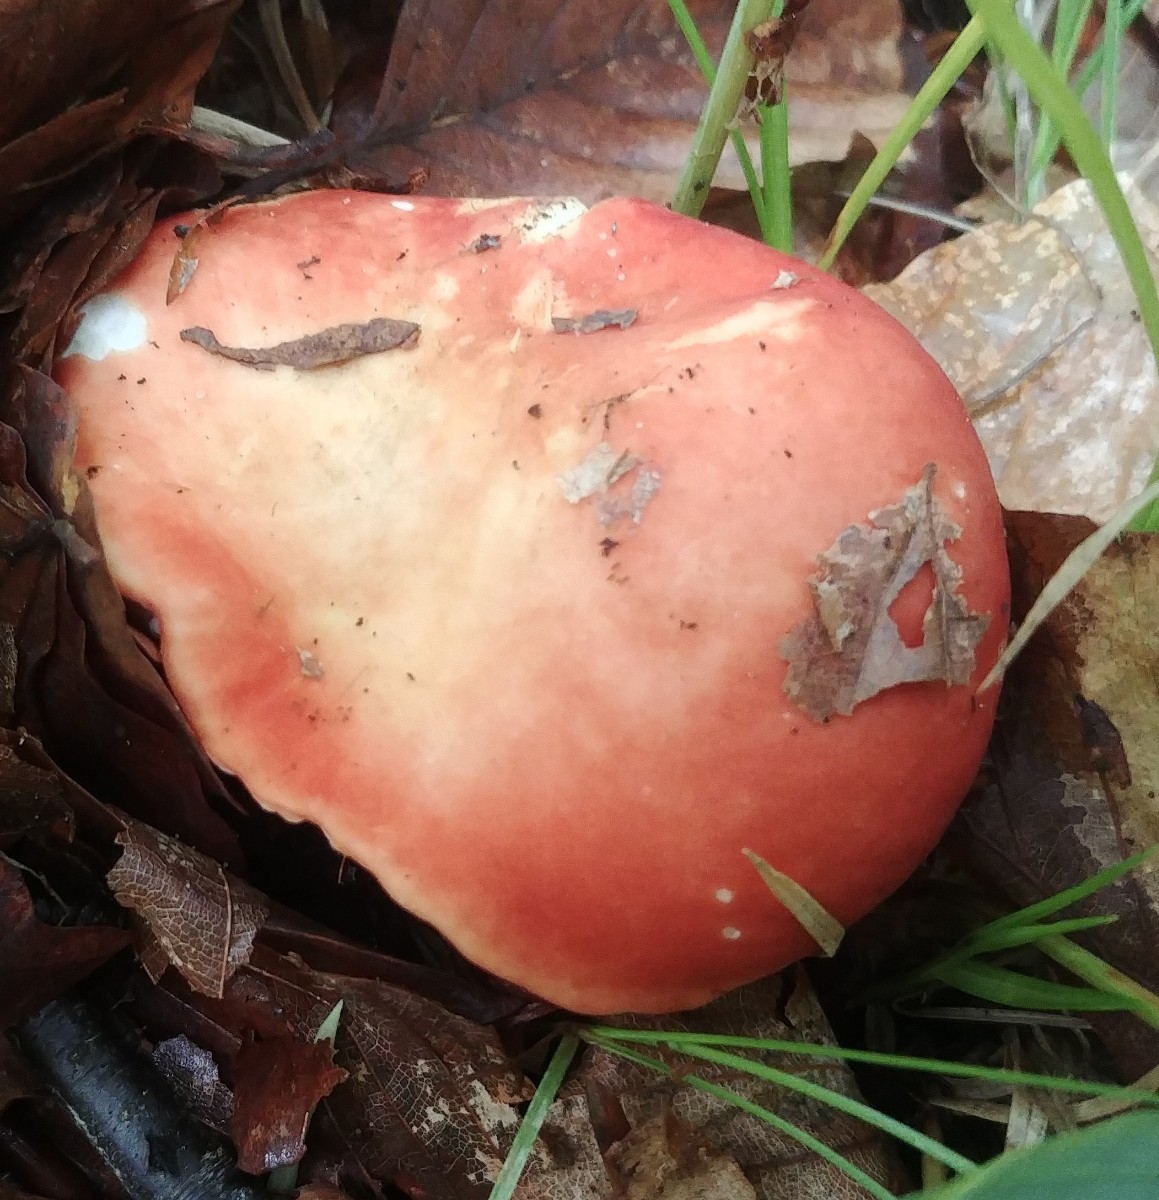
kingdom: Fungi
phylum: Basidiomycota
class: Agaricomycetes
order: Russulales
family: Russulaceae
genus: Russula
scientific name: Russula
